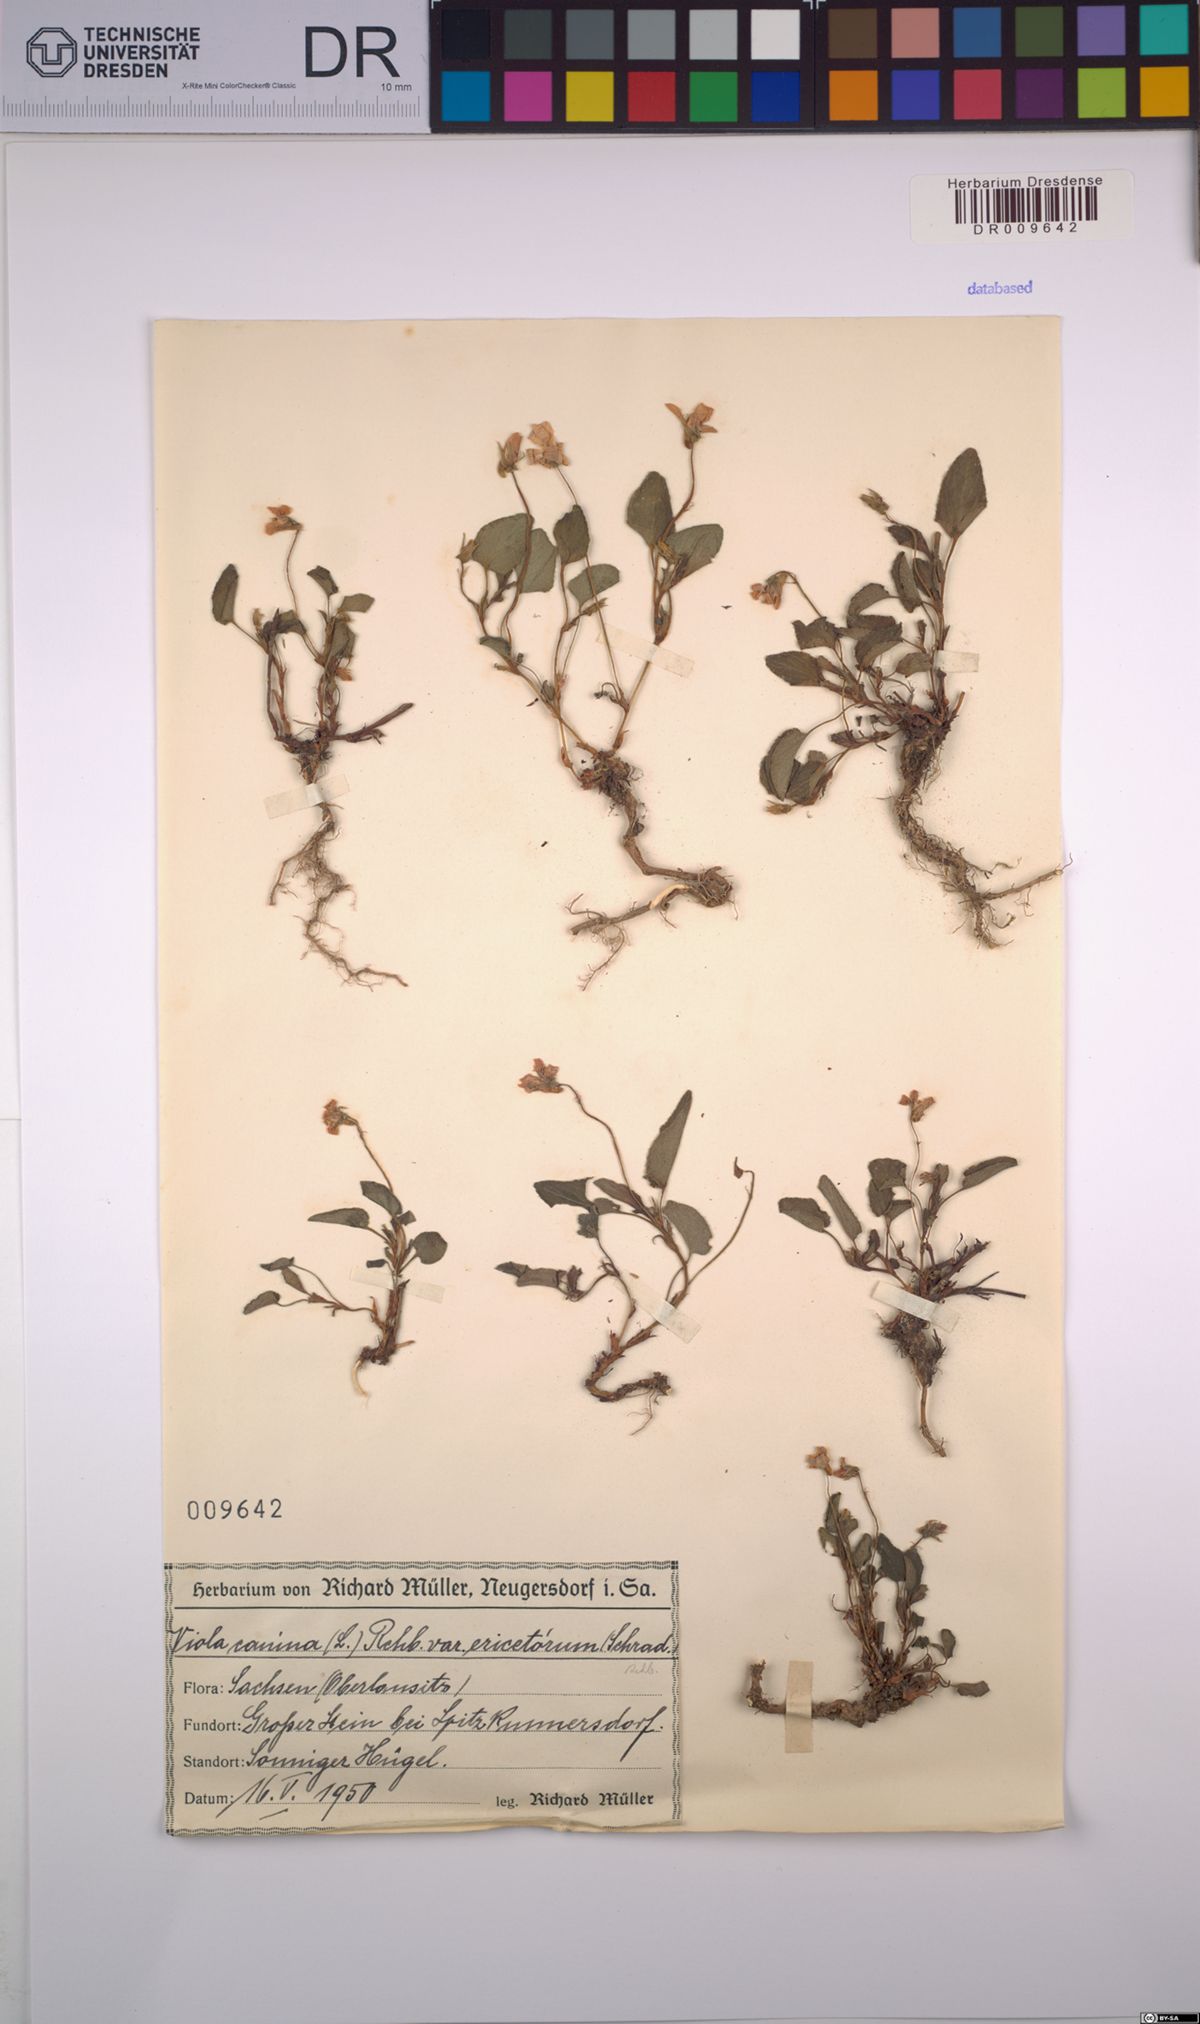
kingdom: Plantae
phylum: Tracheophyta
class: Magnoliopsida
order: Malpighiales
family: Violaceae
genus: Viola
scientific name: Viola canina
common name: Heath dog-violet
